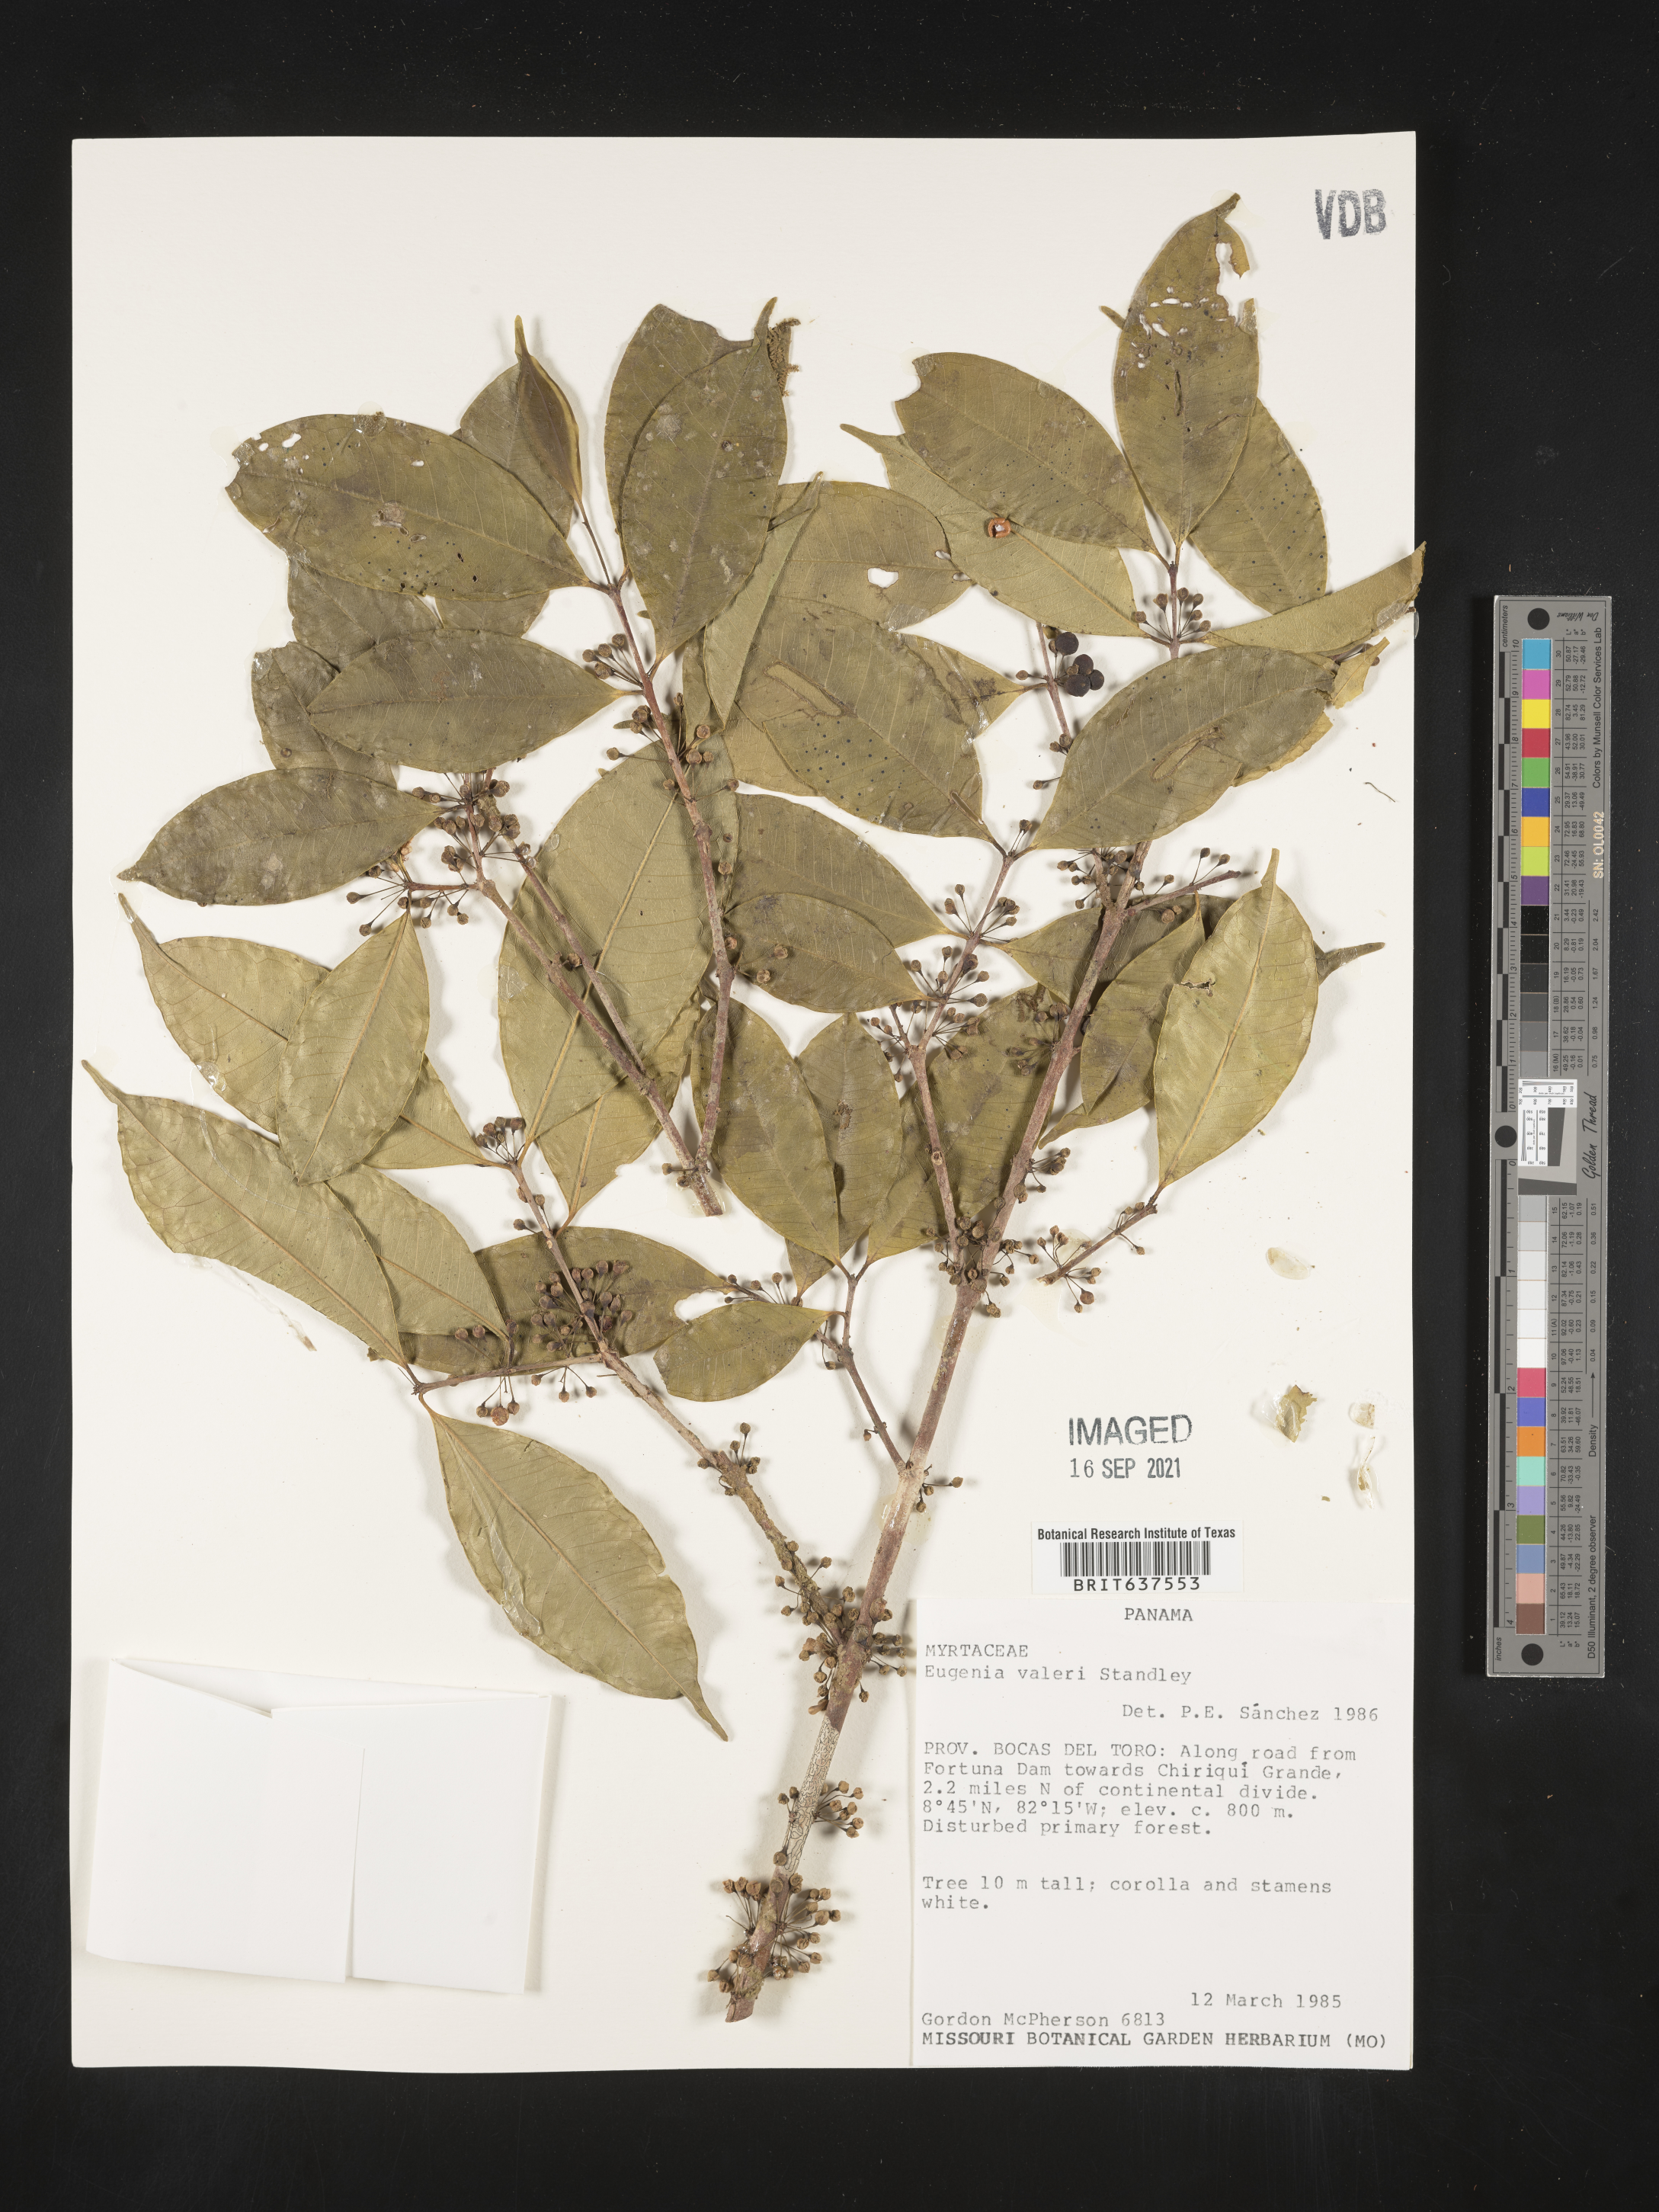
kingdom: Plantae
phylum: Tracheophyta
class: Magnoliopsida
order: Myrtales
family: Myrtaceae
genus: Eugenia
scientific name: Eugenia
